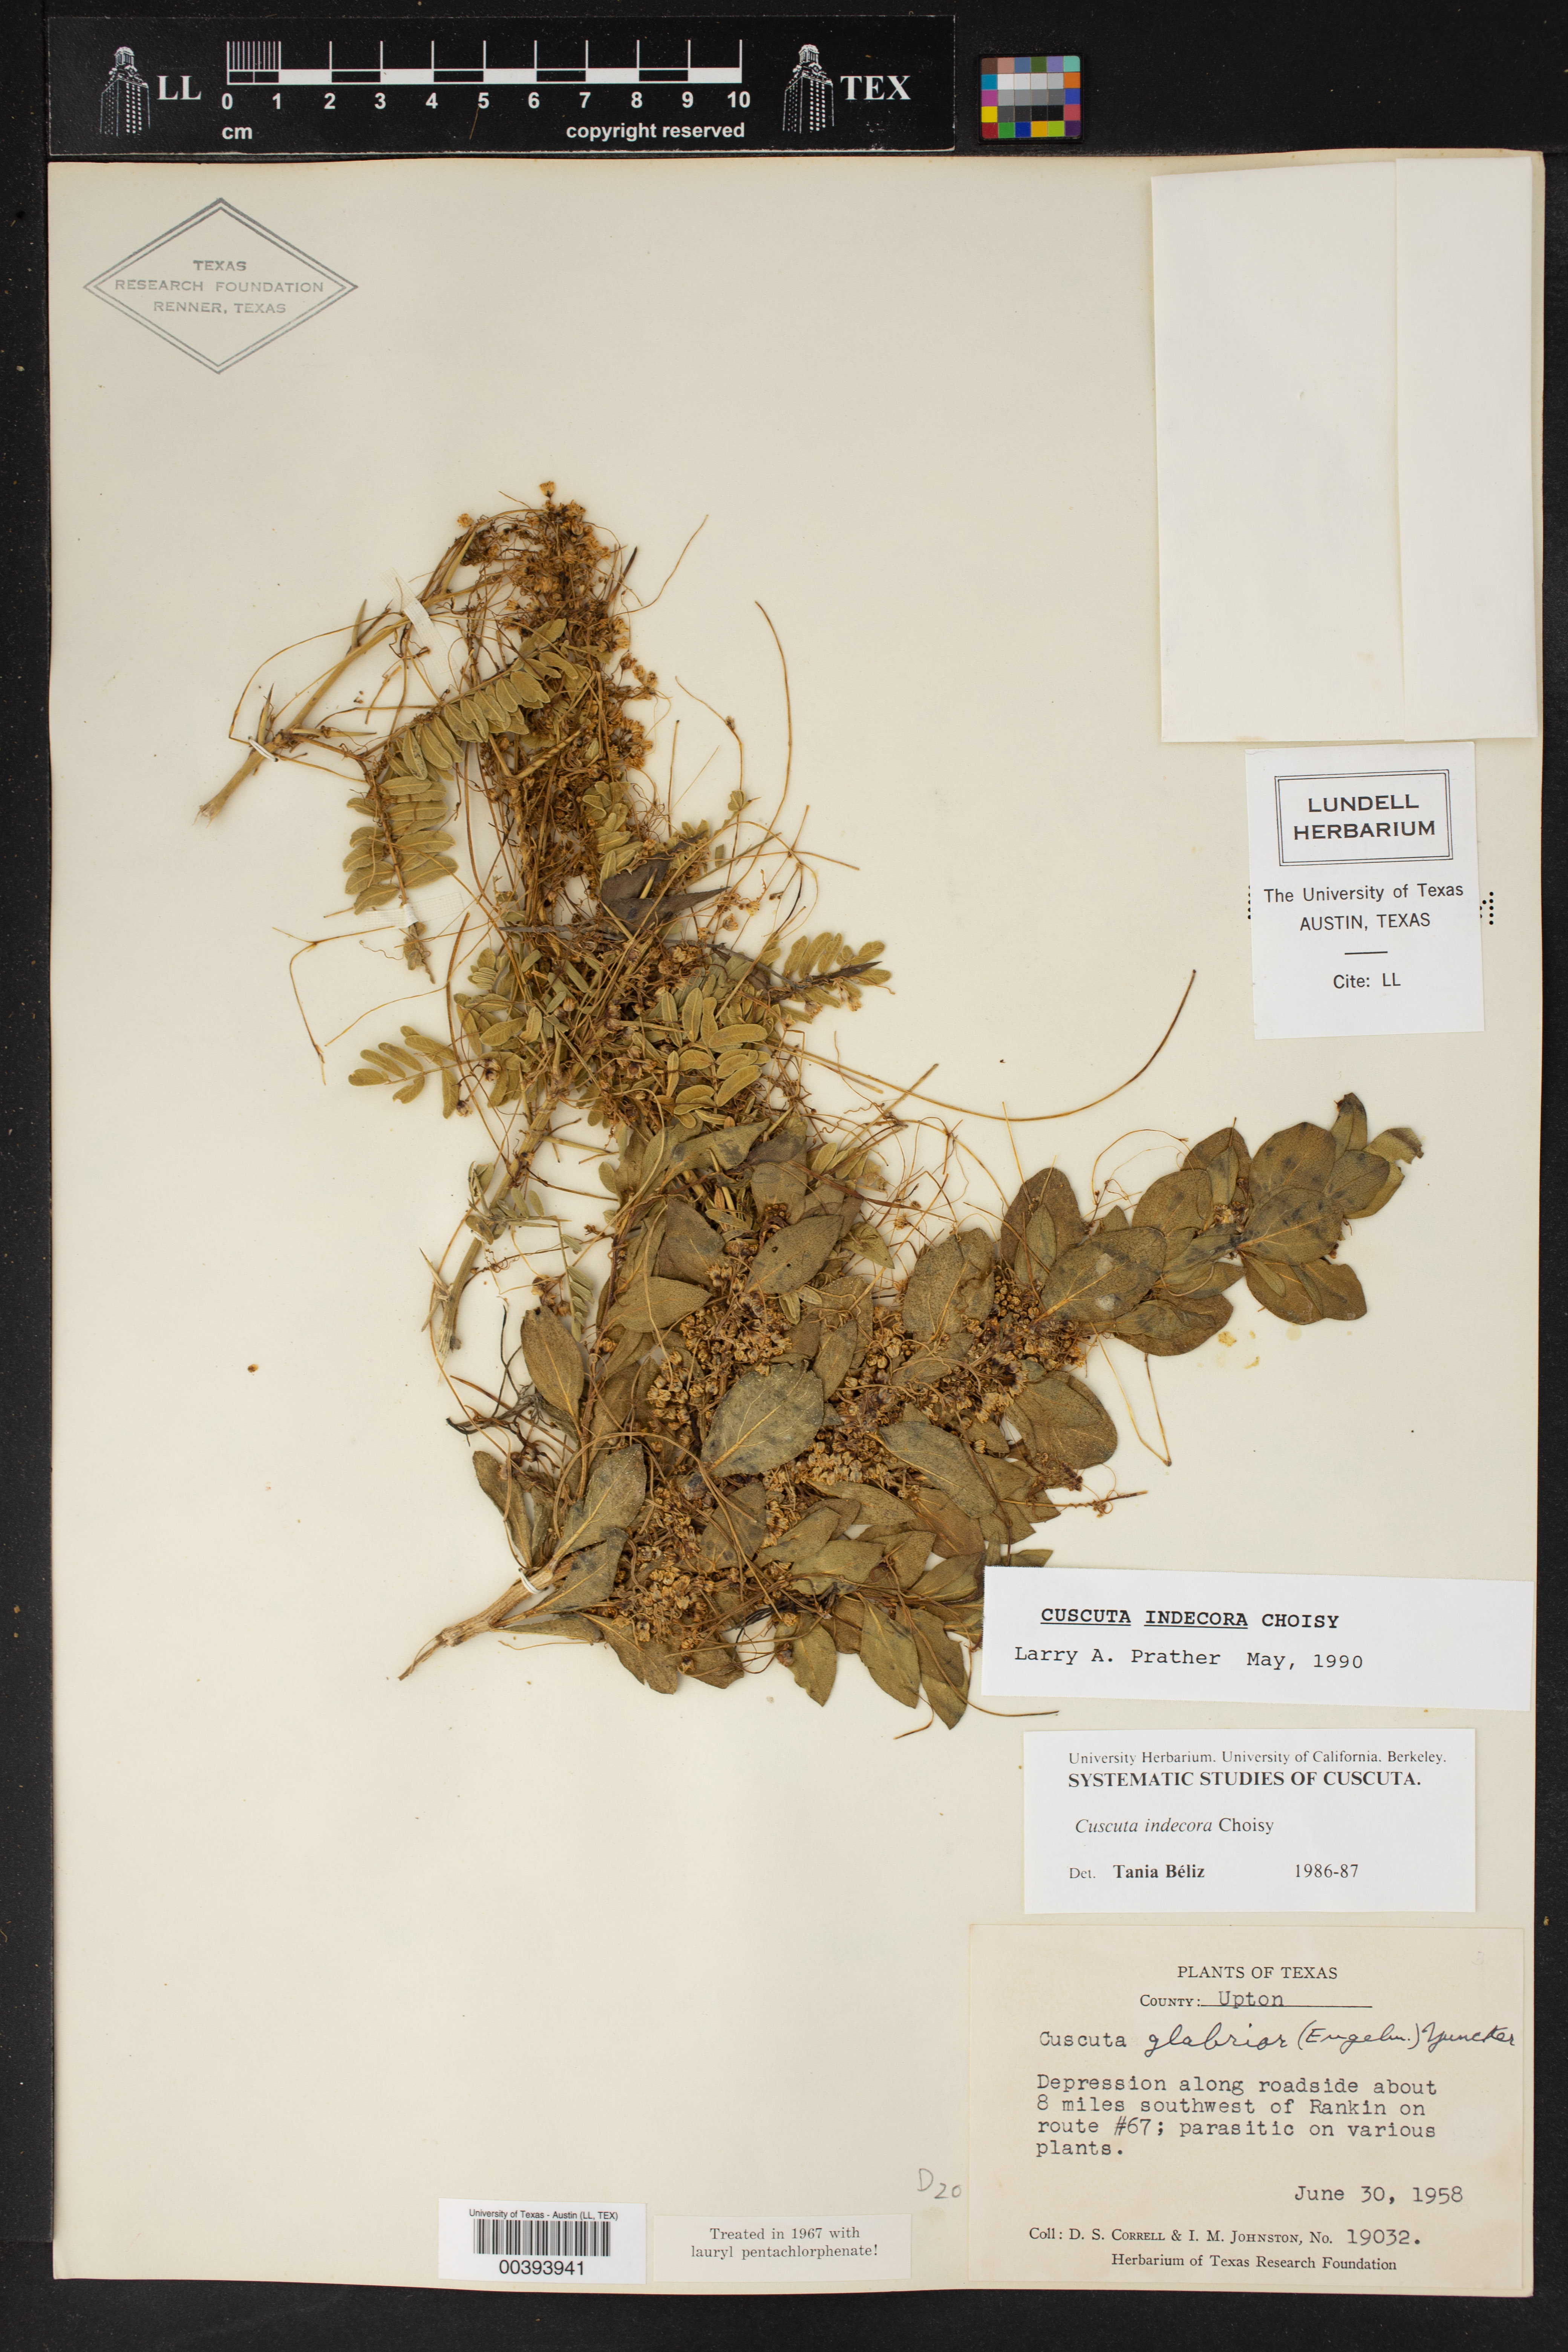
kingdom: Plantae
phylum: Tracheophyta
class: Magnoliopsida
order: Solanales
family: Convolvulaceae
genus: Cuscuta
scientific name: Cuscuta indecora
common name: Large-seed dodder
